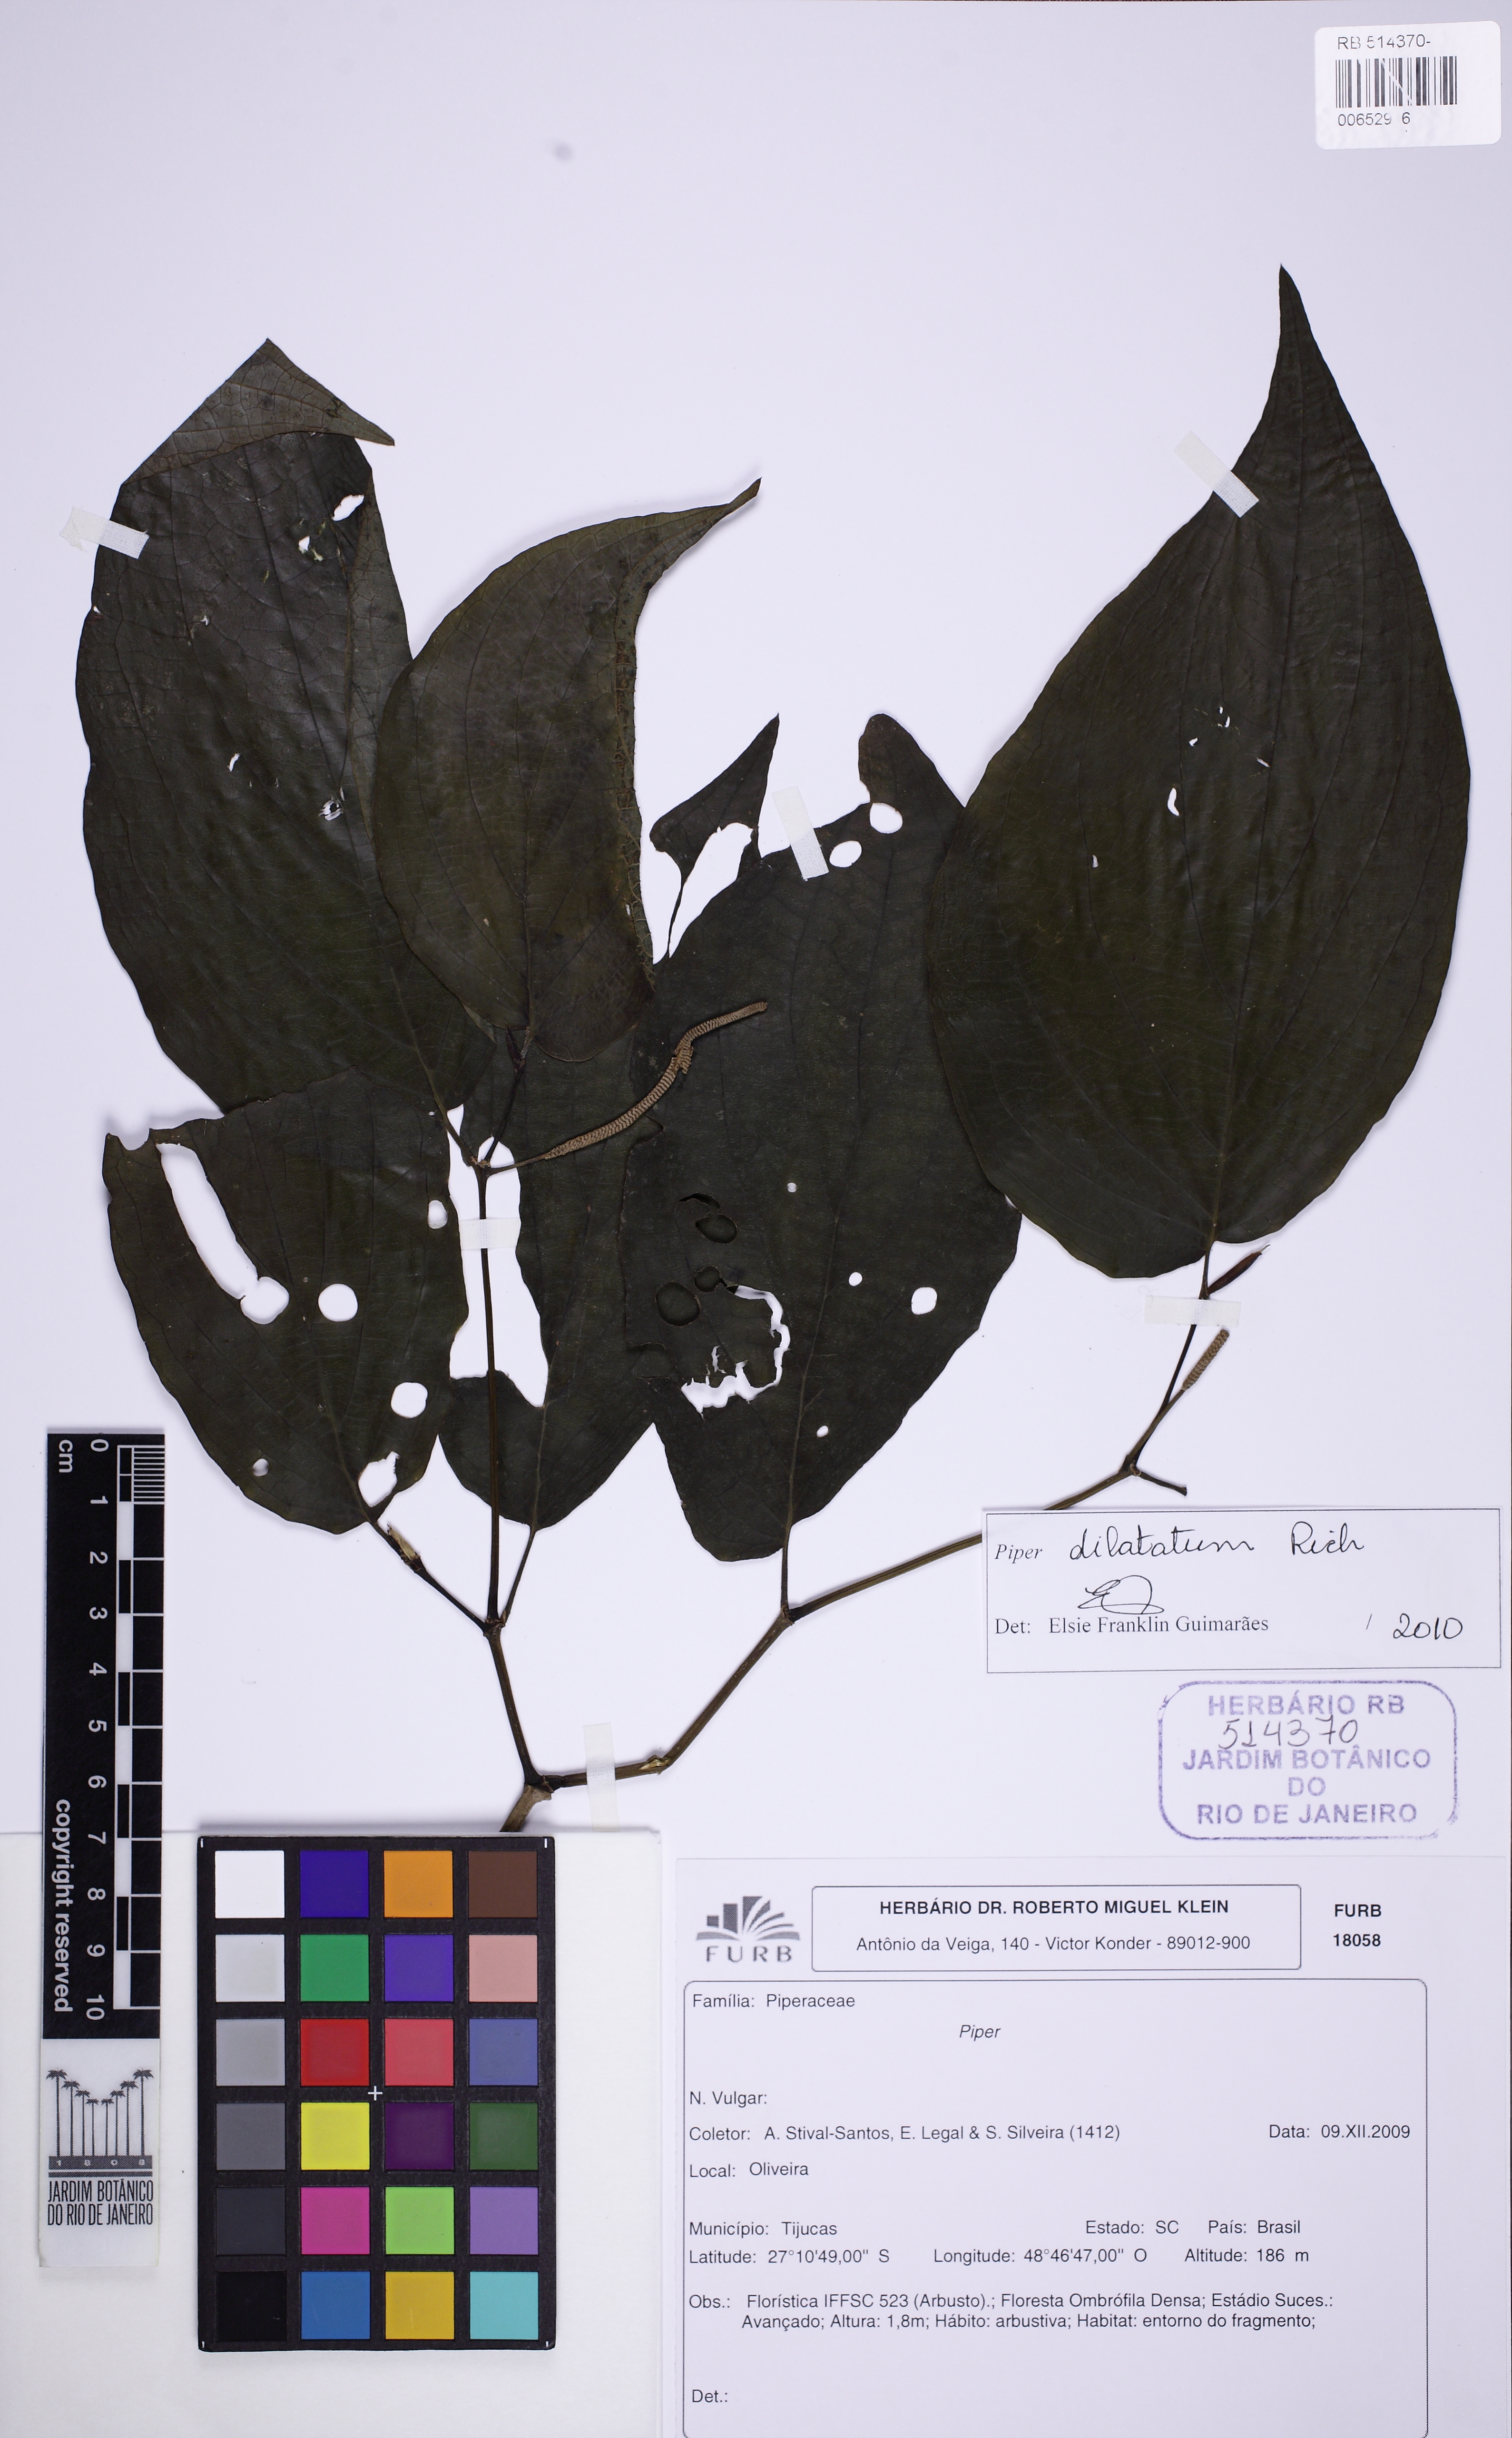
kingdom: Plantae
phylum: Tracheophyta
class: Magnoliopsida
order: Piperales
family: Piperaceae
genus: Piper
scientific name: Piper dilatatum
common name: Higuillo
